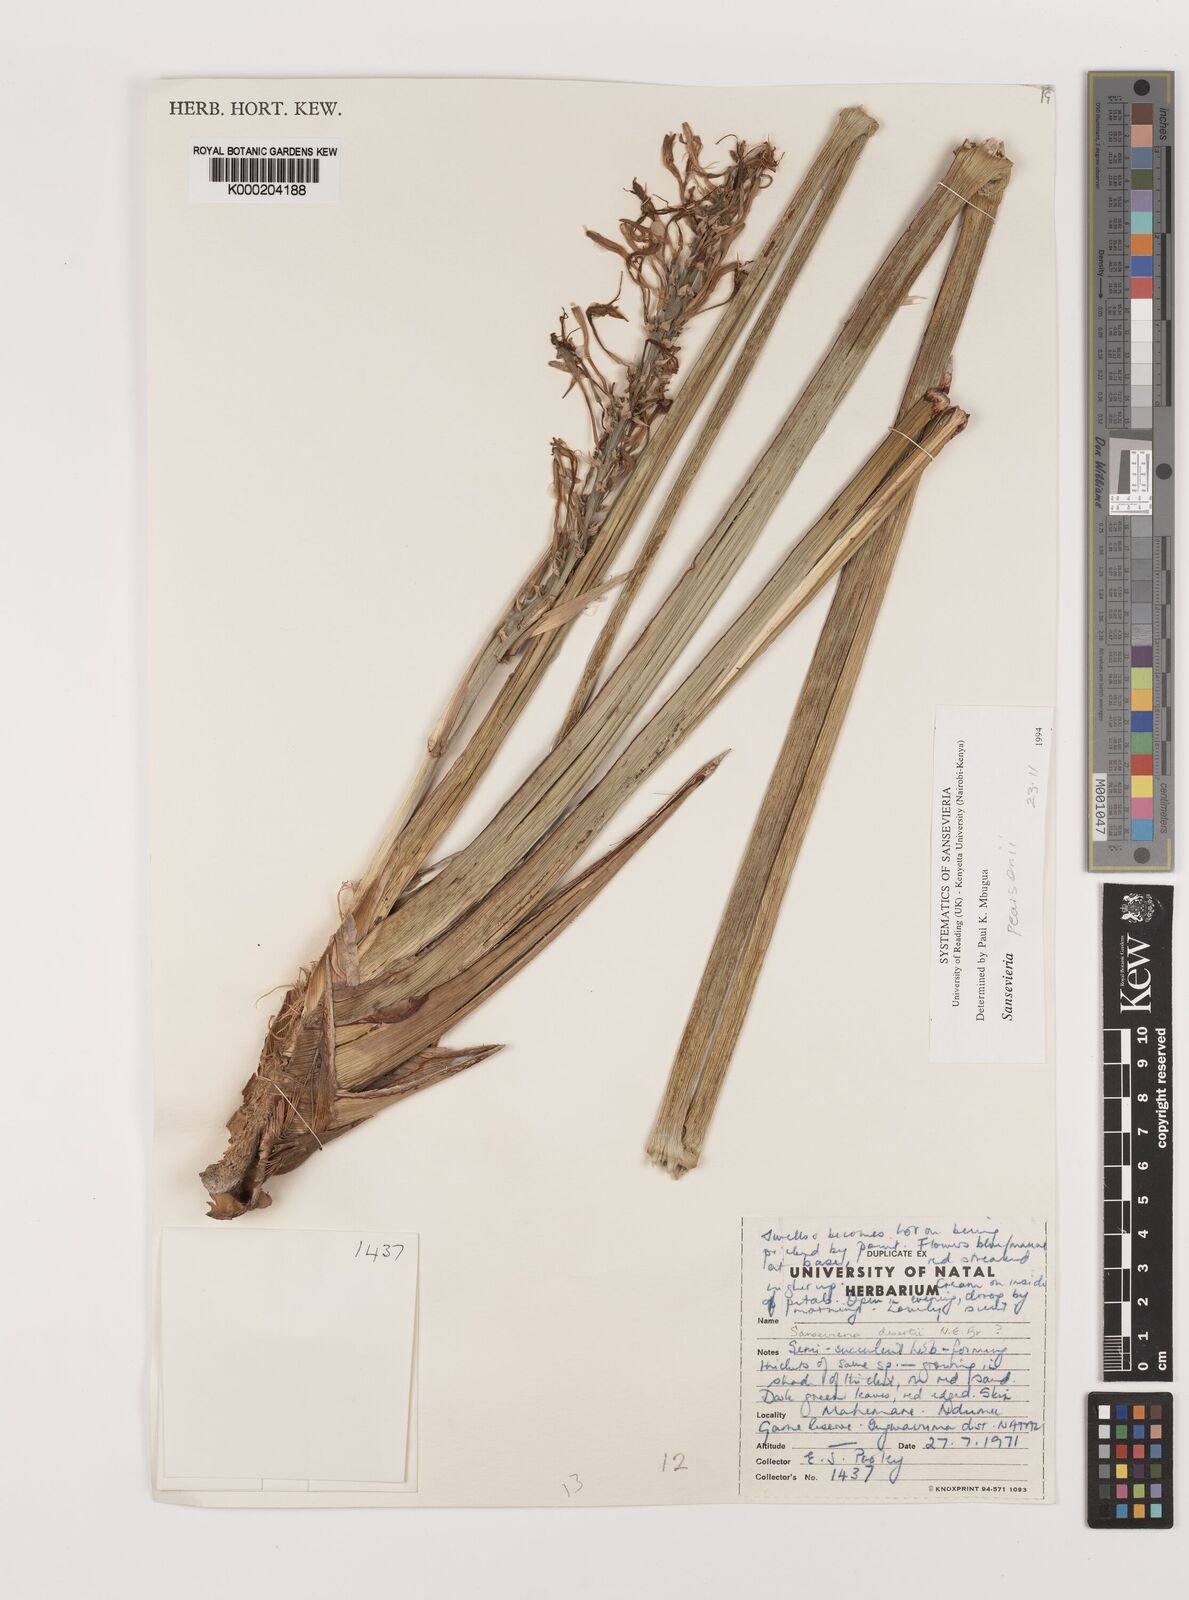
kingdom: Plantae
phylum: Tracheophyta
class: Liliopsida
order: Asparagales
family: Asparagaceae
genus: Dracaena
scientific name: Dracaena pearsonii
